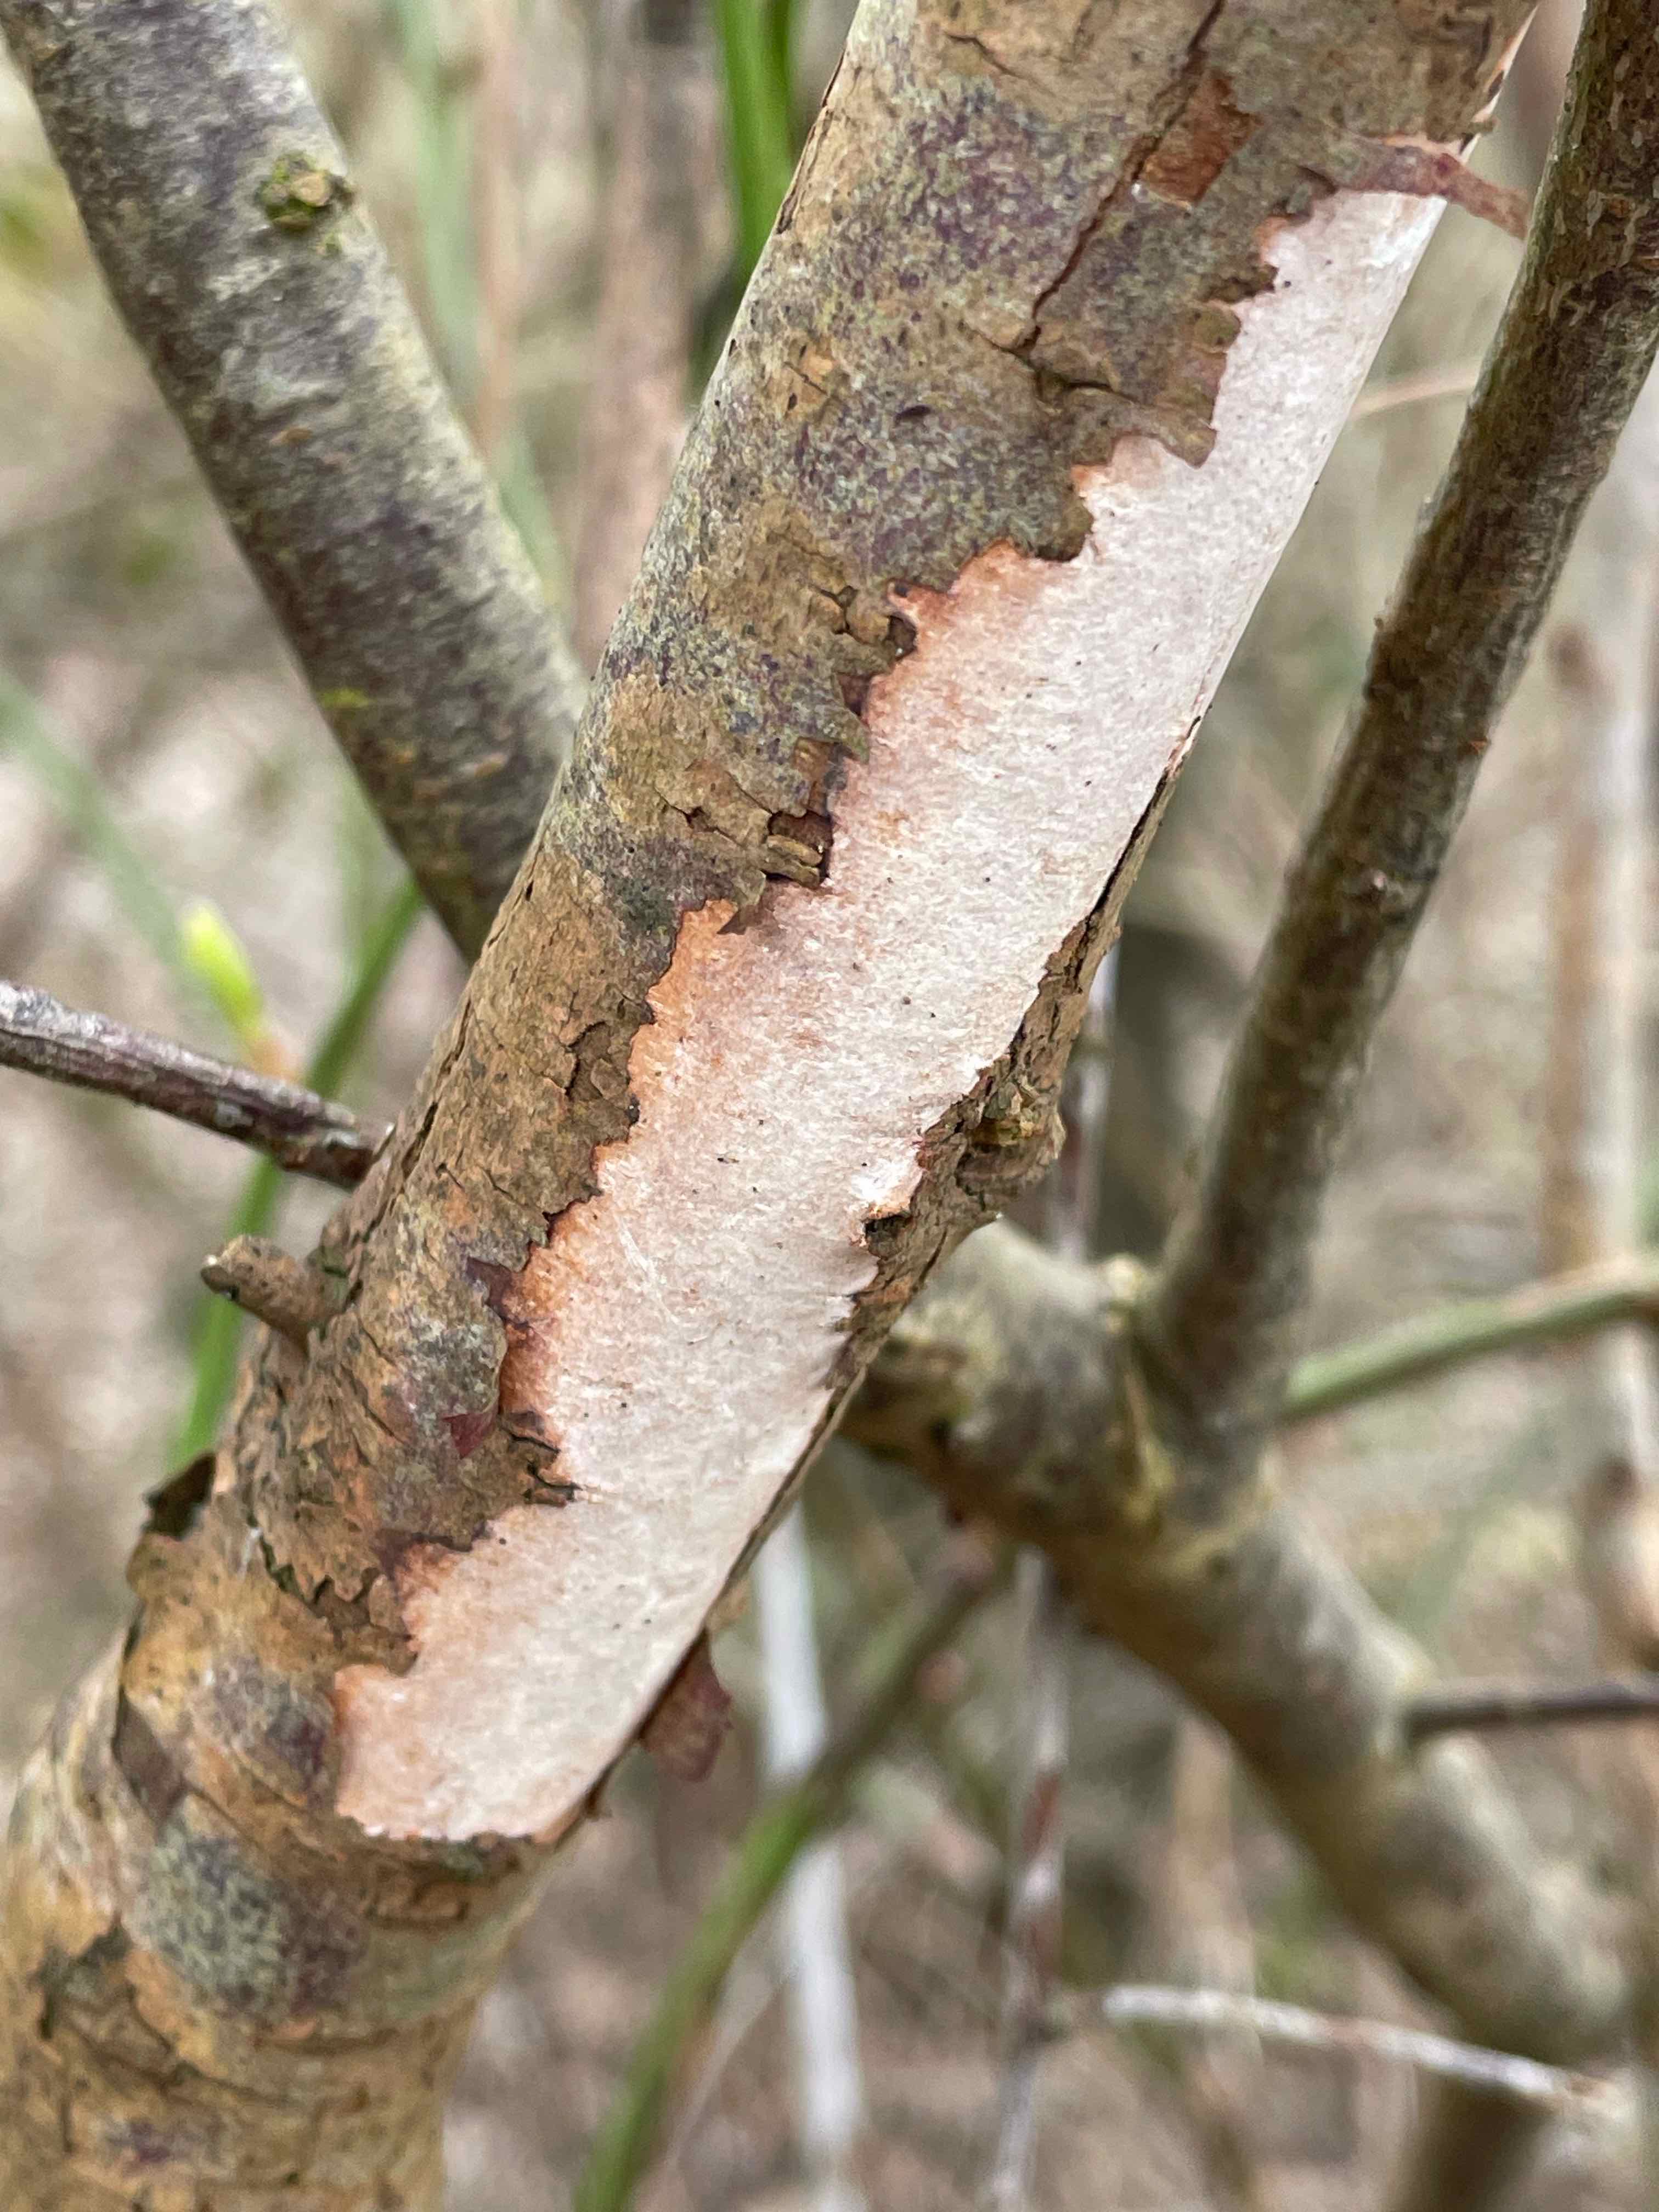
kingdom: Fungi
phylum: Basidiomycota
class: Agaricomycetes
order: Corticiales
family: Vuilleminiaceae
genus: Vuilleminia
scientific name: Vuilleminia cystidiata
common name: tjørne-barksprænger
